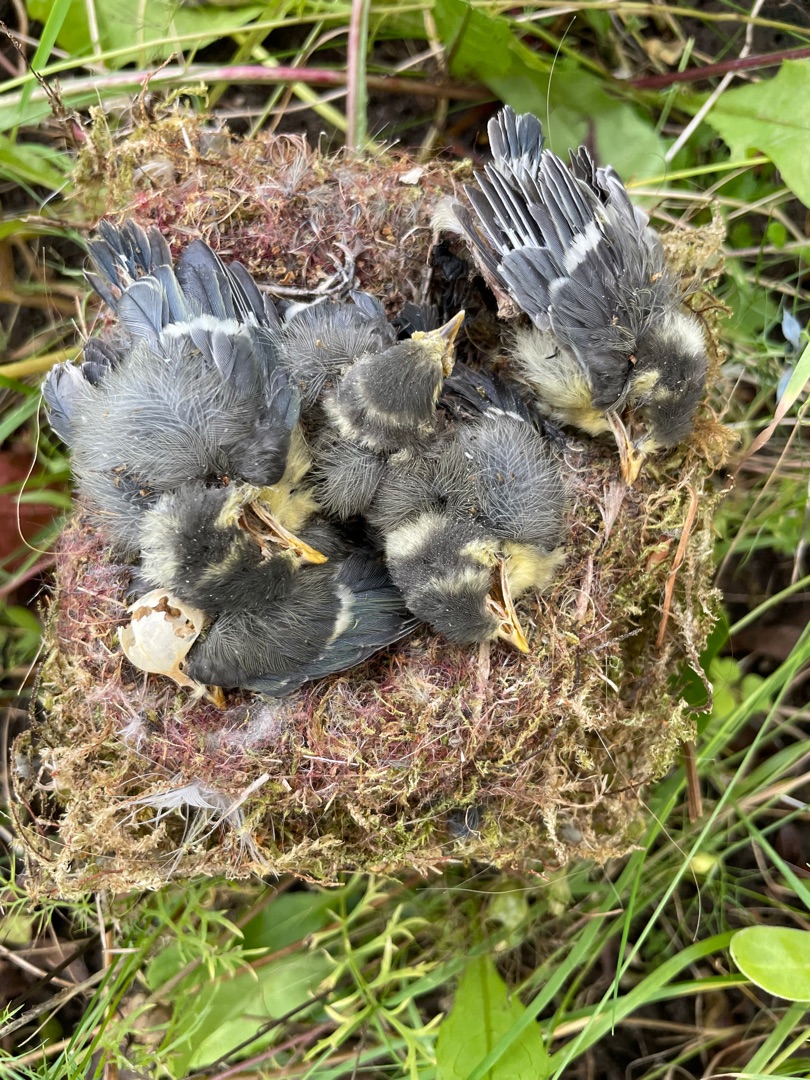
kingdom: Animalia
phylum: Chordata
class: Aves
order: Passeriformes
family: Paridae
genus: Cyanistes
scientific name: Cyanistes caeruleus
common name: Blåmejse
